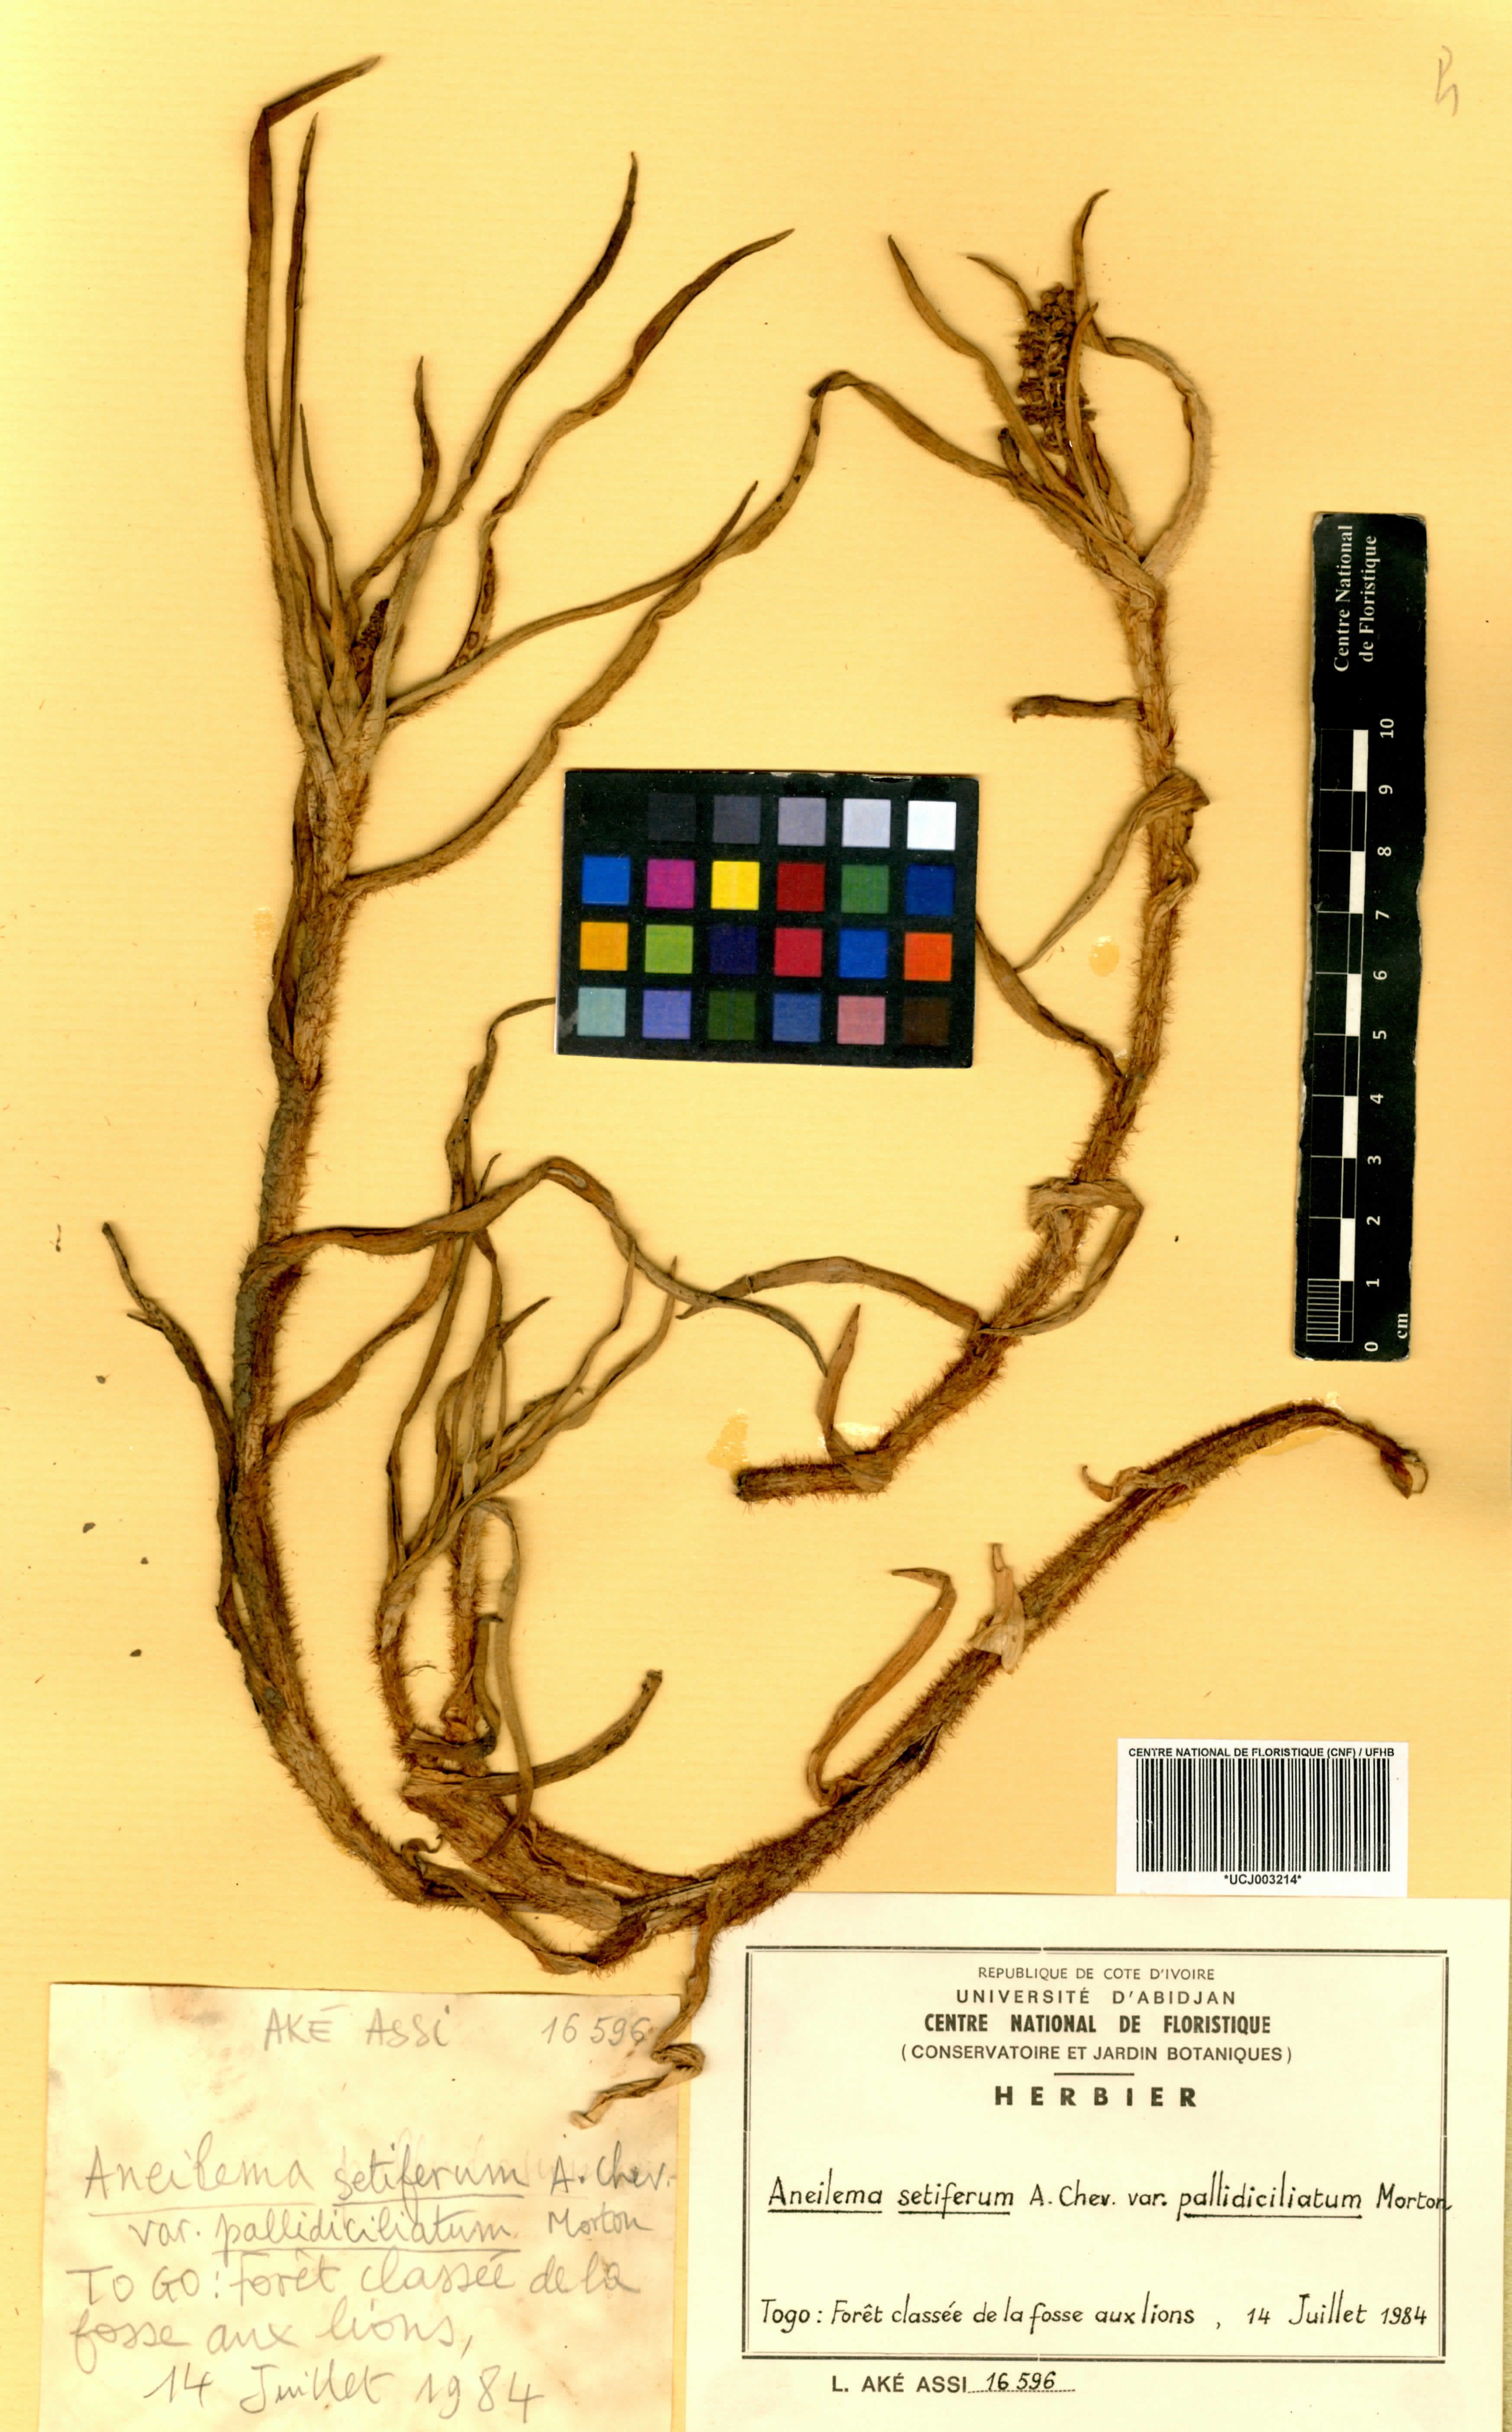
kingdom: Plantae
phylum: Tracheophyta
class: Liliopsida
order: Commelinales
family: Commelinaceae
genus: Aneilema
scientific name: Aneilema setiferum
